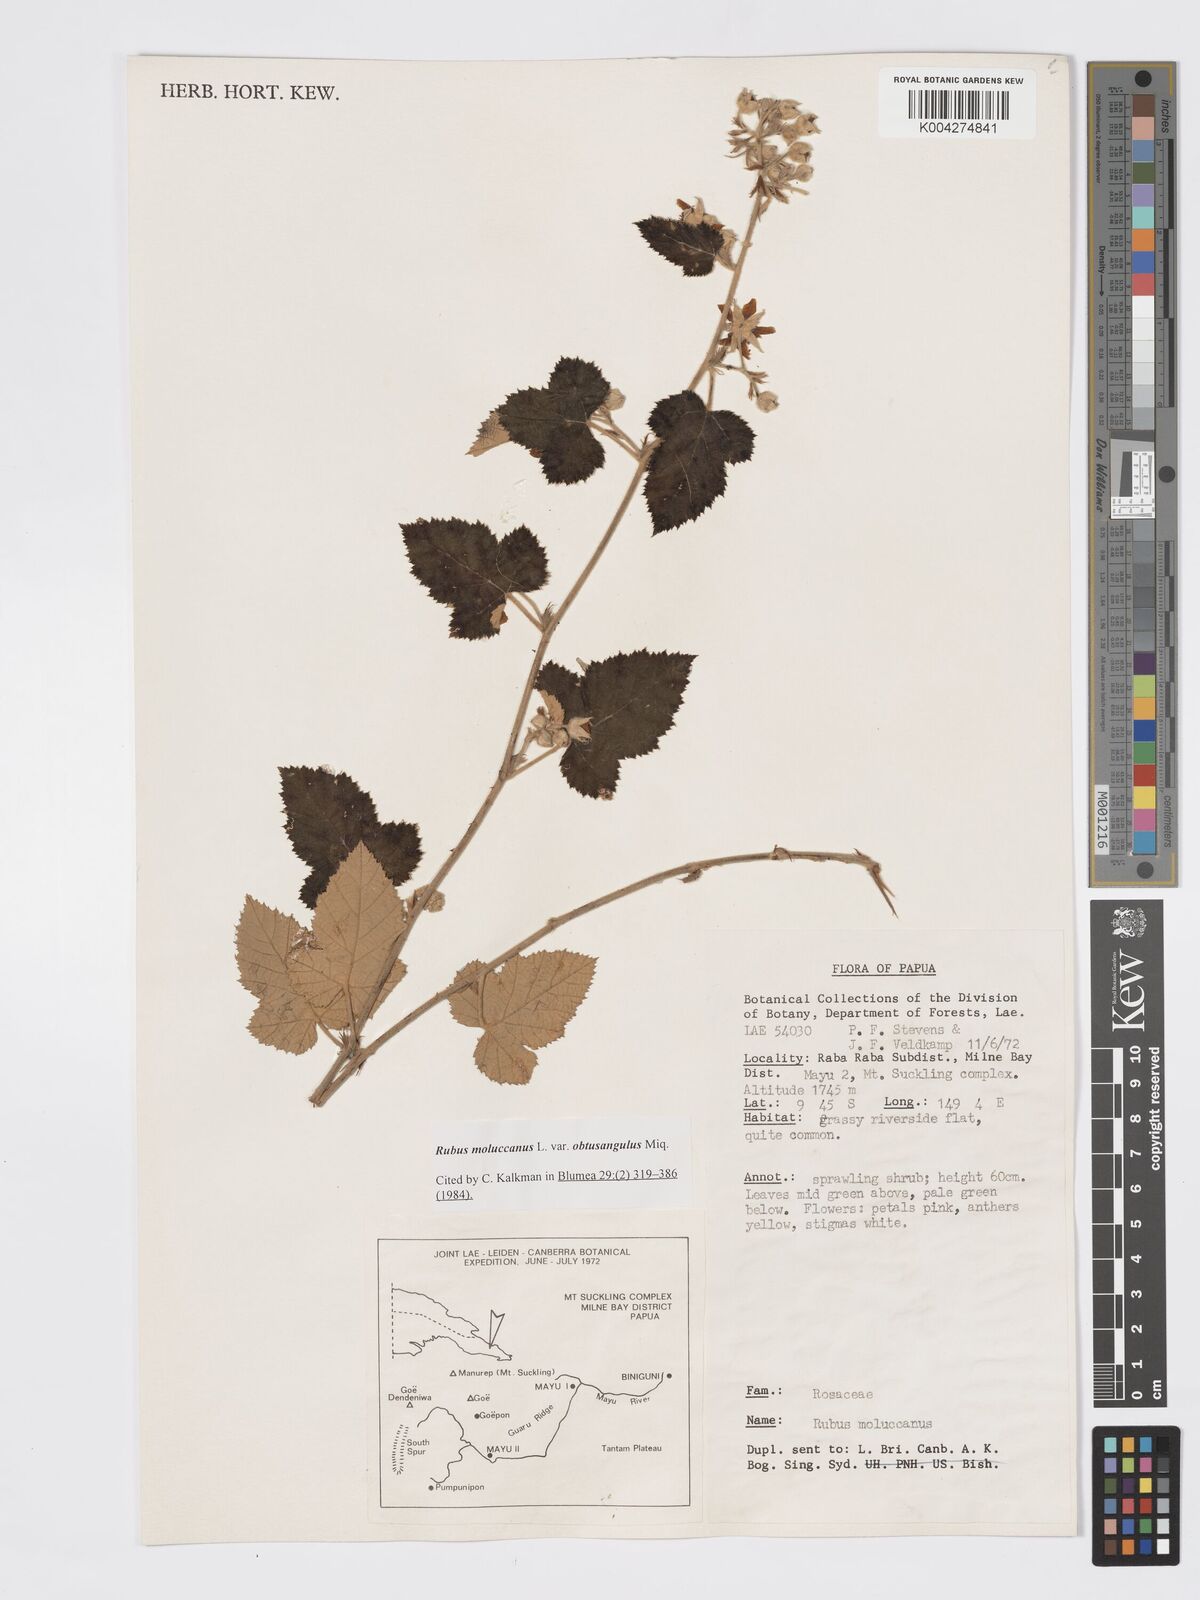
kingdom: Plantae
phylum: Tracheophyta
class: Magnoliopsida
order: Rosales
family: Rosaceae
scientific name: Rosaceae
